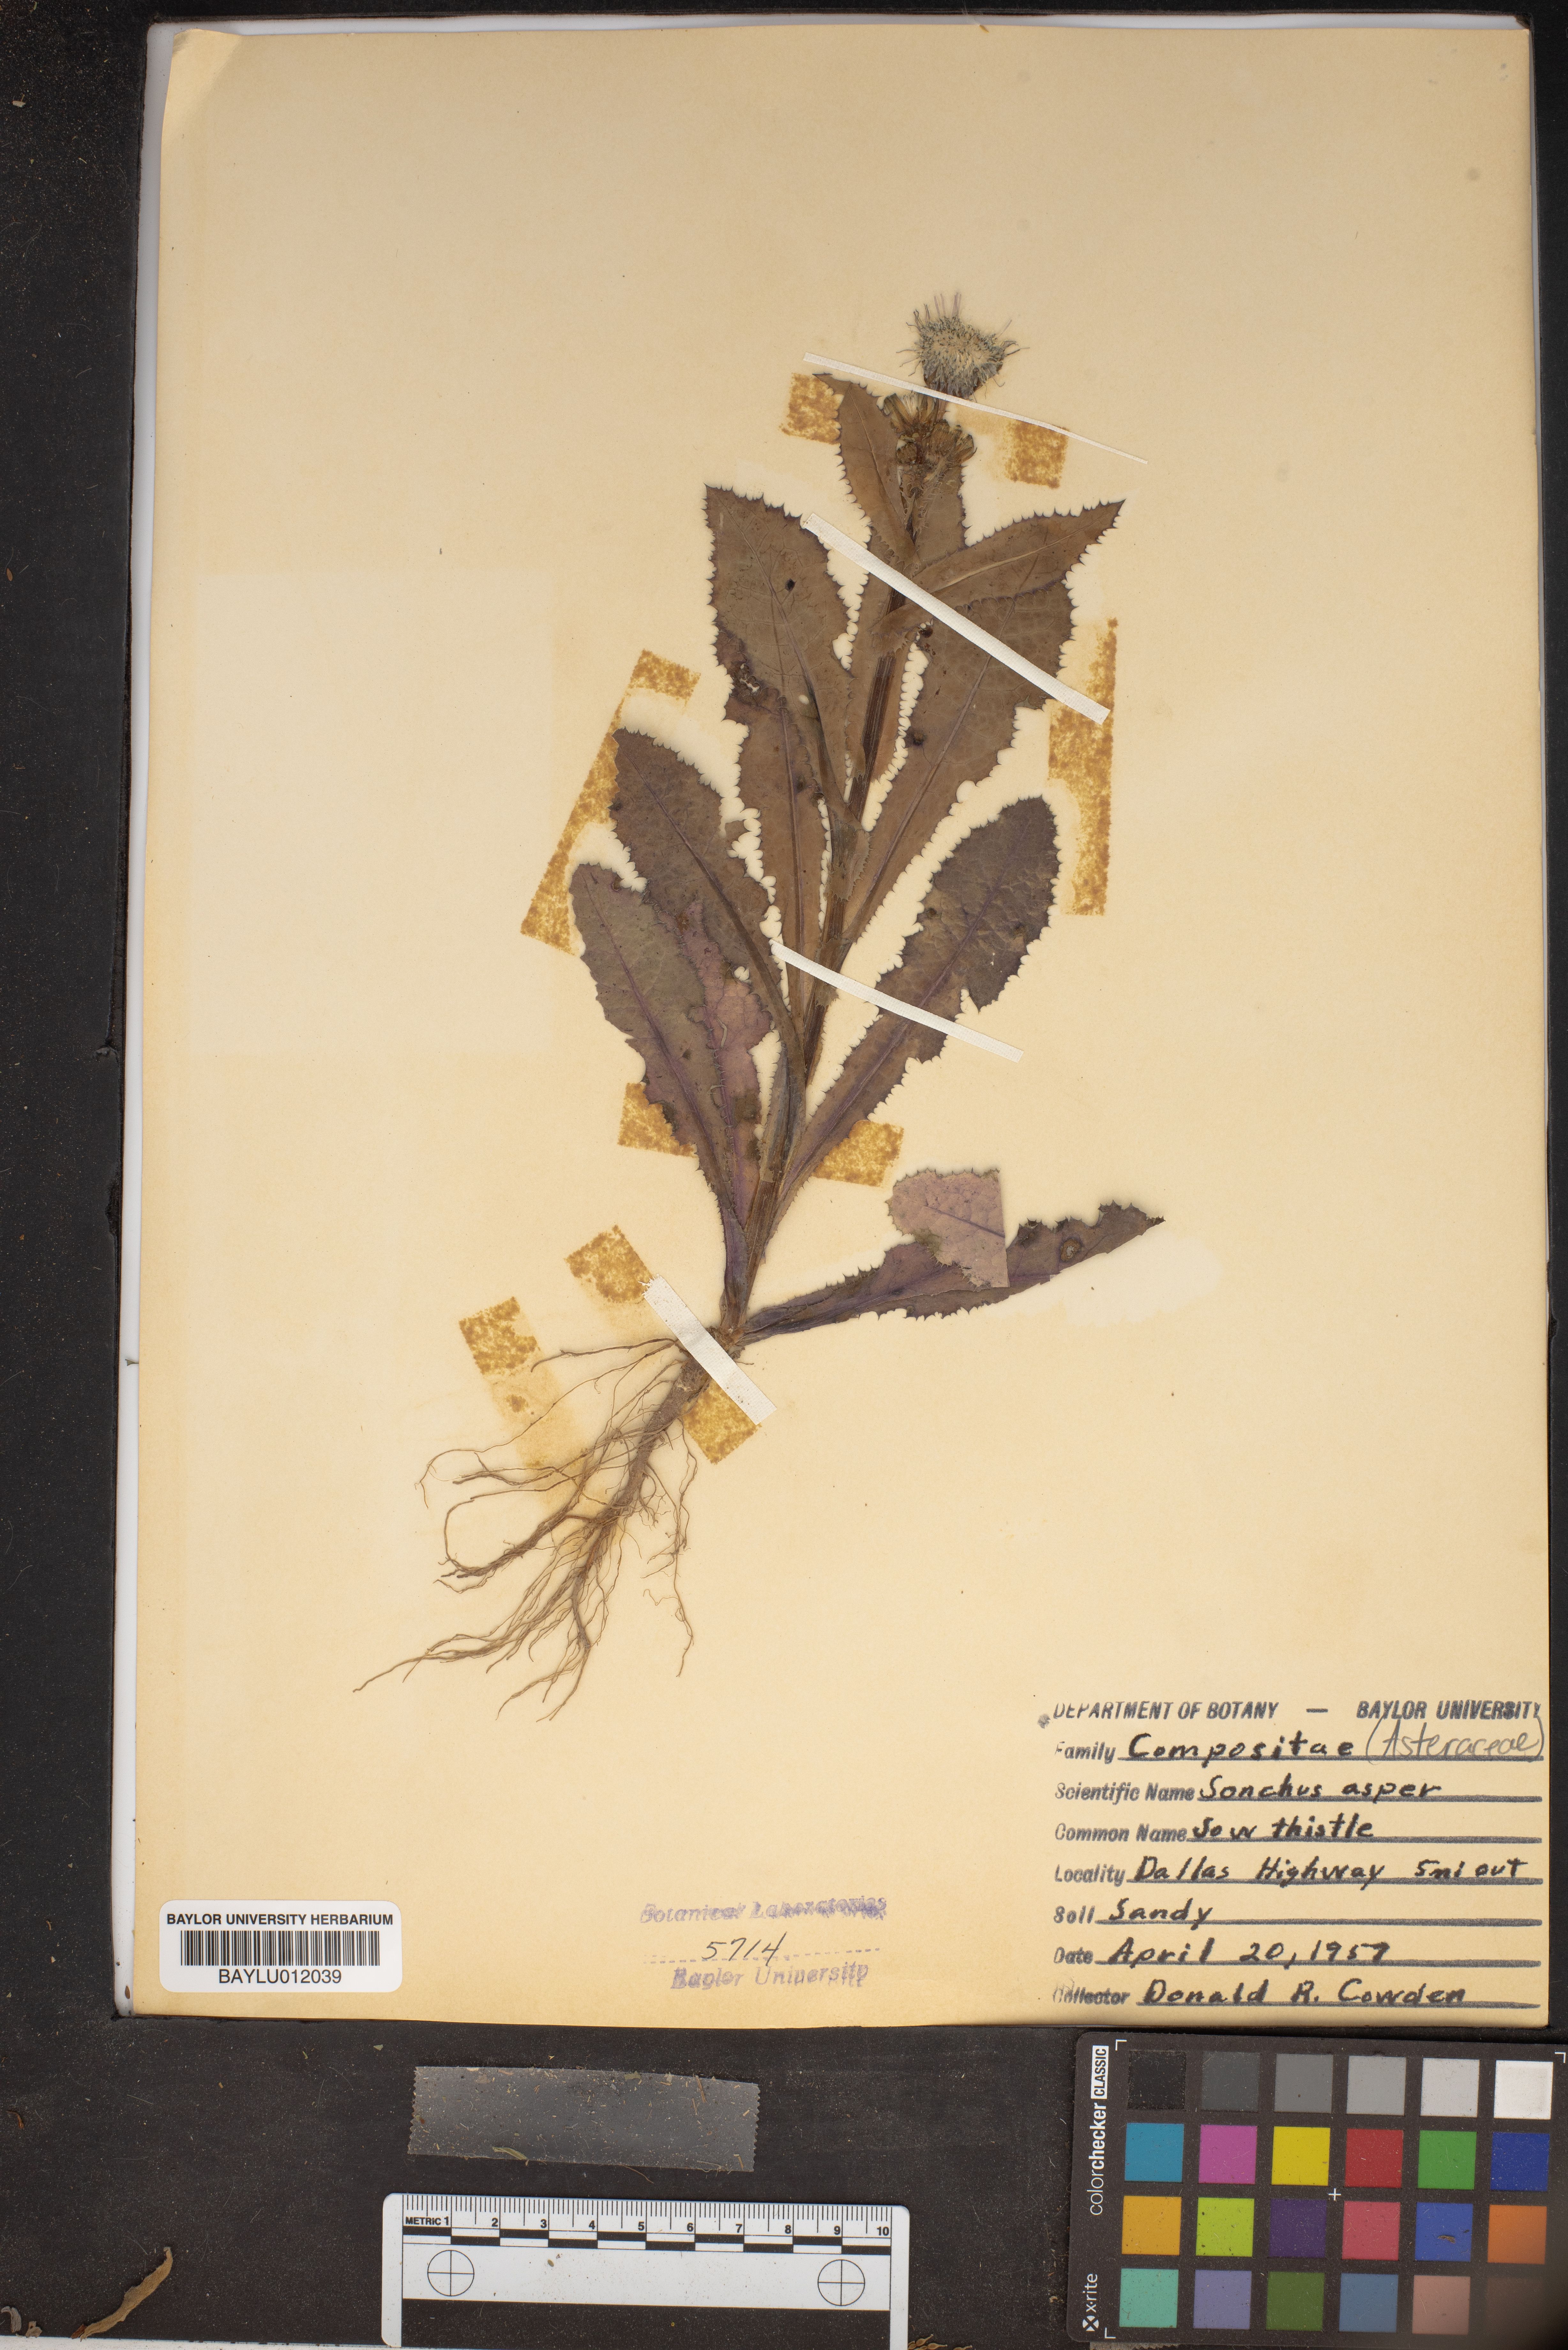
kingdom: Plantae
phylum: Tracheophyta
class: Magnoliopsida
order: Asterales
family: Asteraceae
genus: Sonchus
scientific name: Sonchus asper
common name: Prickly sow-thistle
